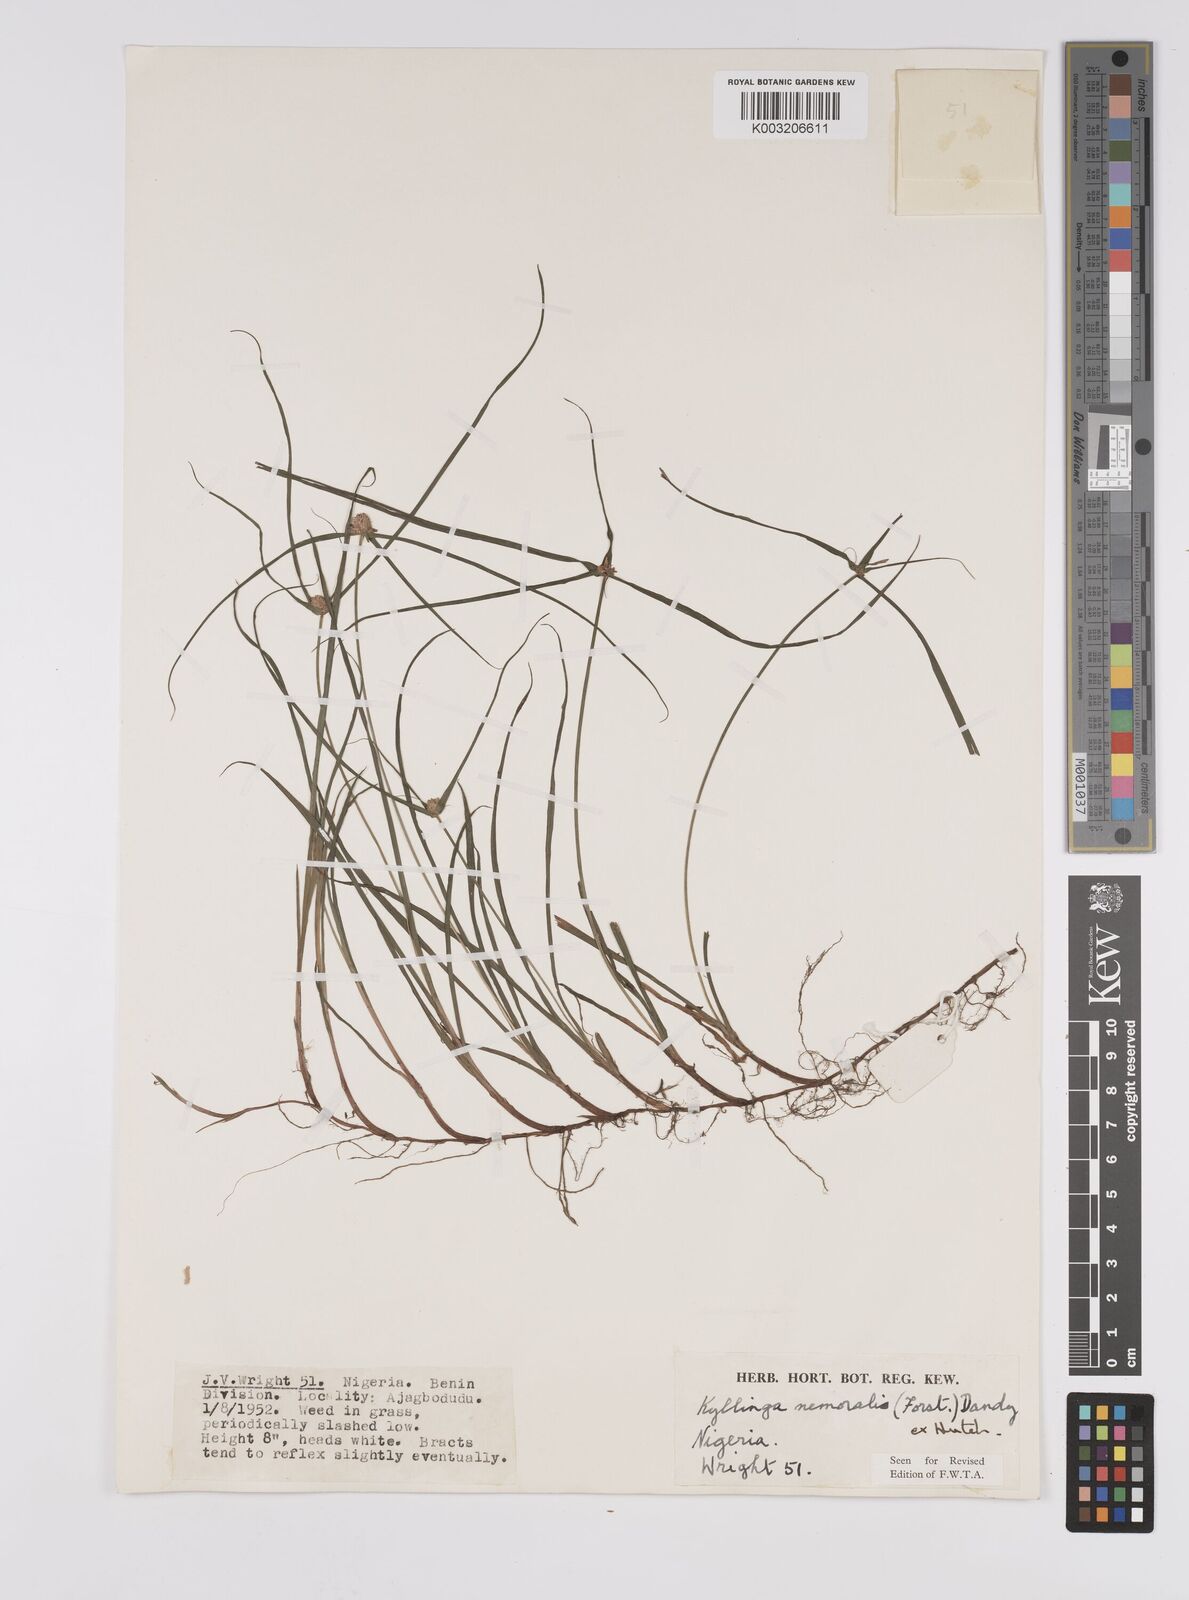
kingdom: Plantae
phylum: Tracheophyta
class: Liliopsida
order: Poales
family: Cyperaceae
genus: Cyperus
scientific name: Cyperus nemoralis
